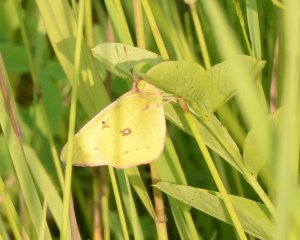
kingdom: Animalia
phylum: Arthropoda
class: Insecta
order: Lepidoptera
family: Pieridae
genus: Colias
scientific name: Colias philodice
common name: Clouded Sulphur
